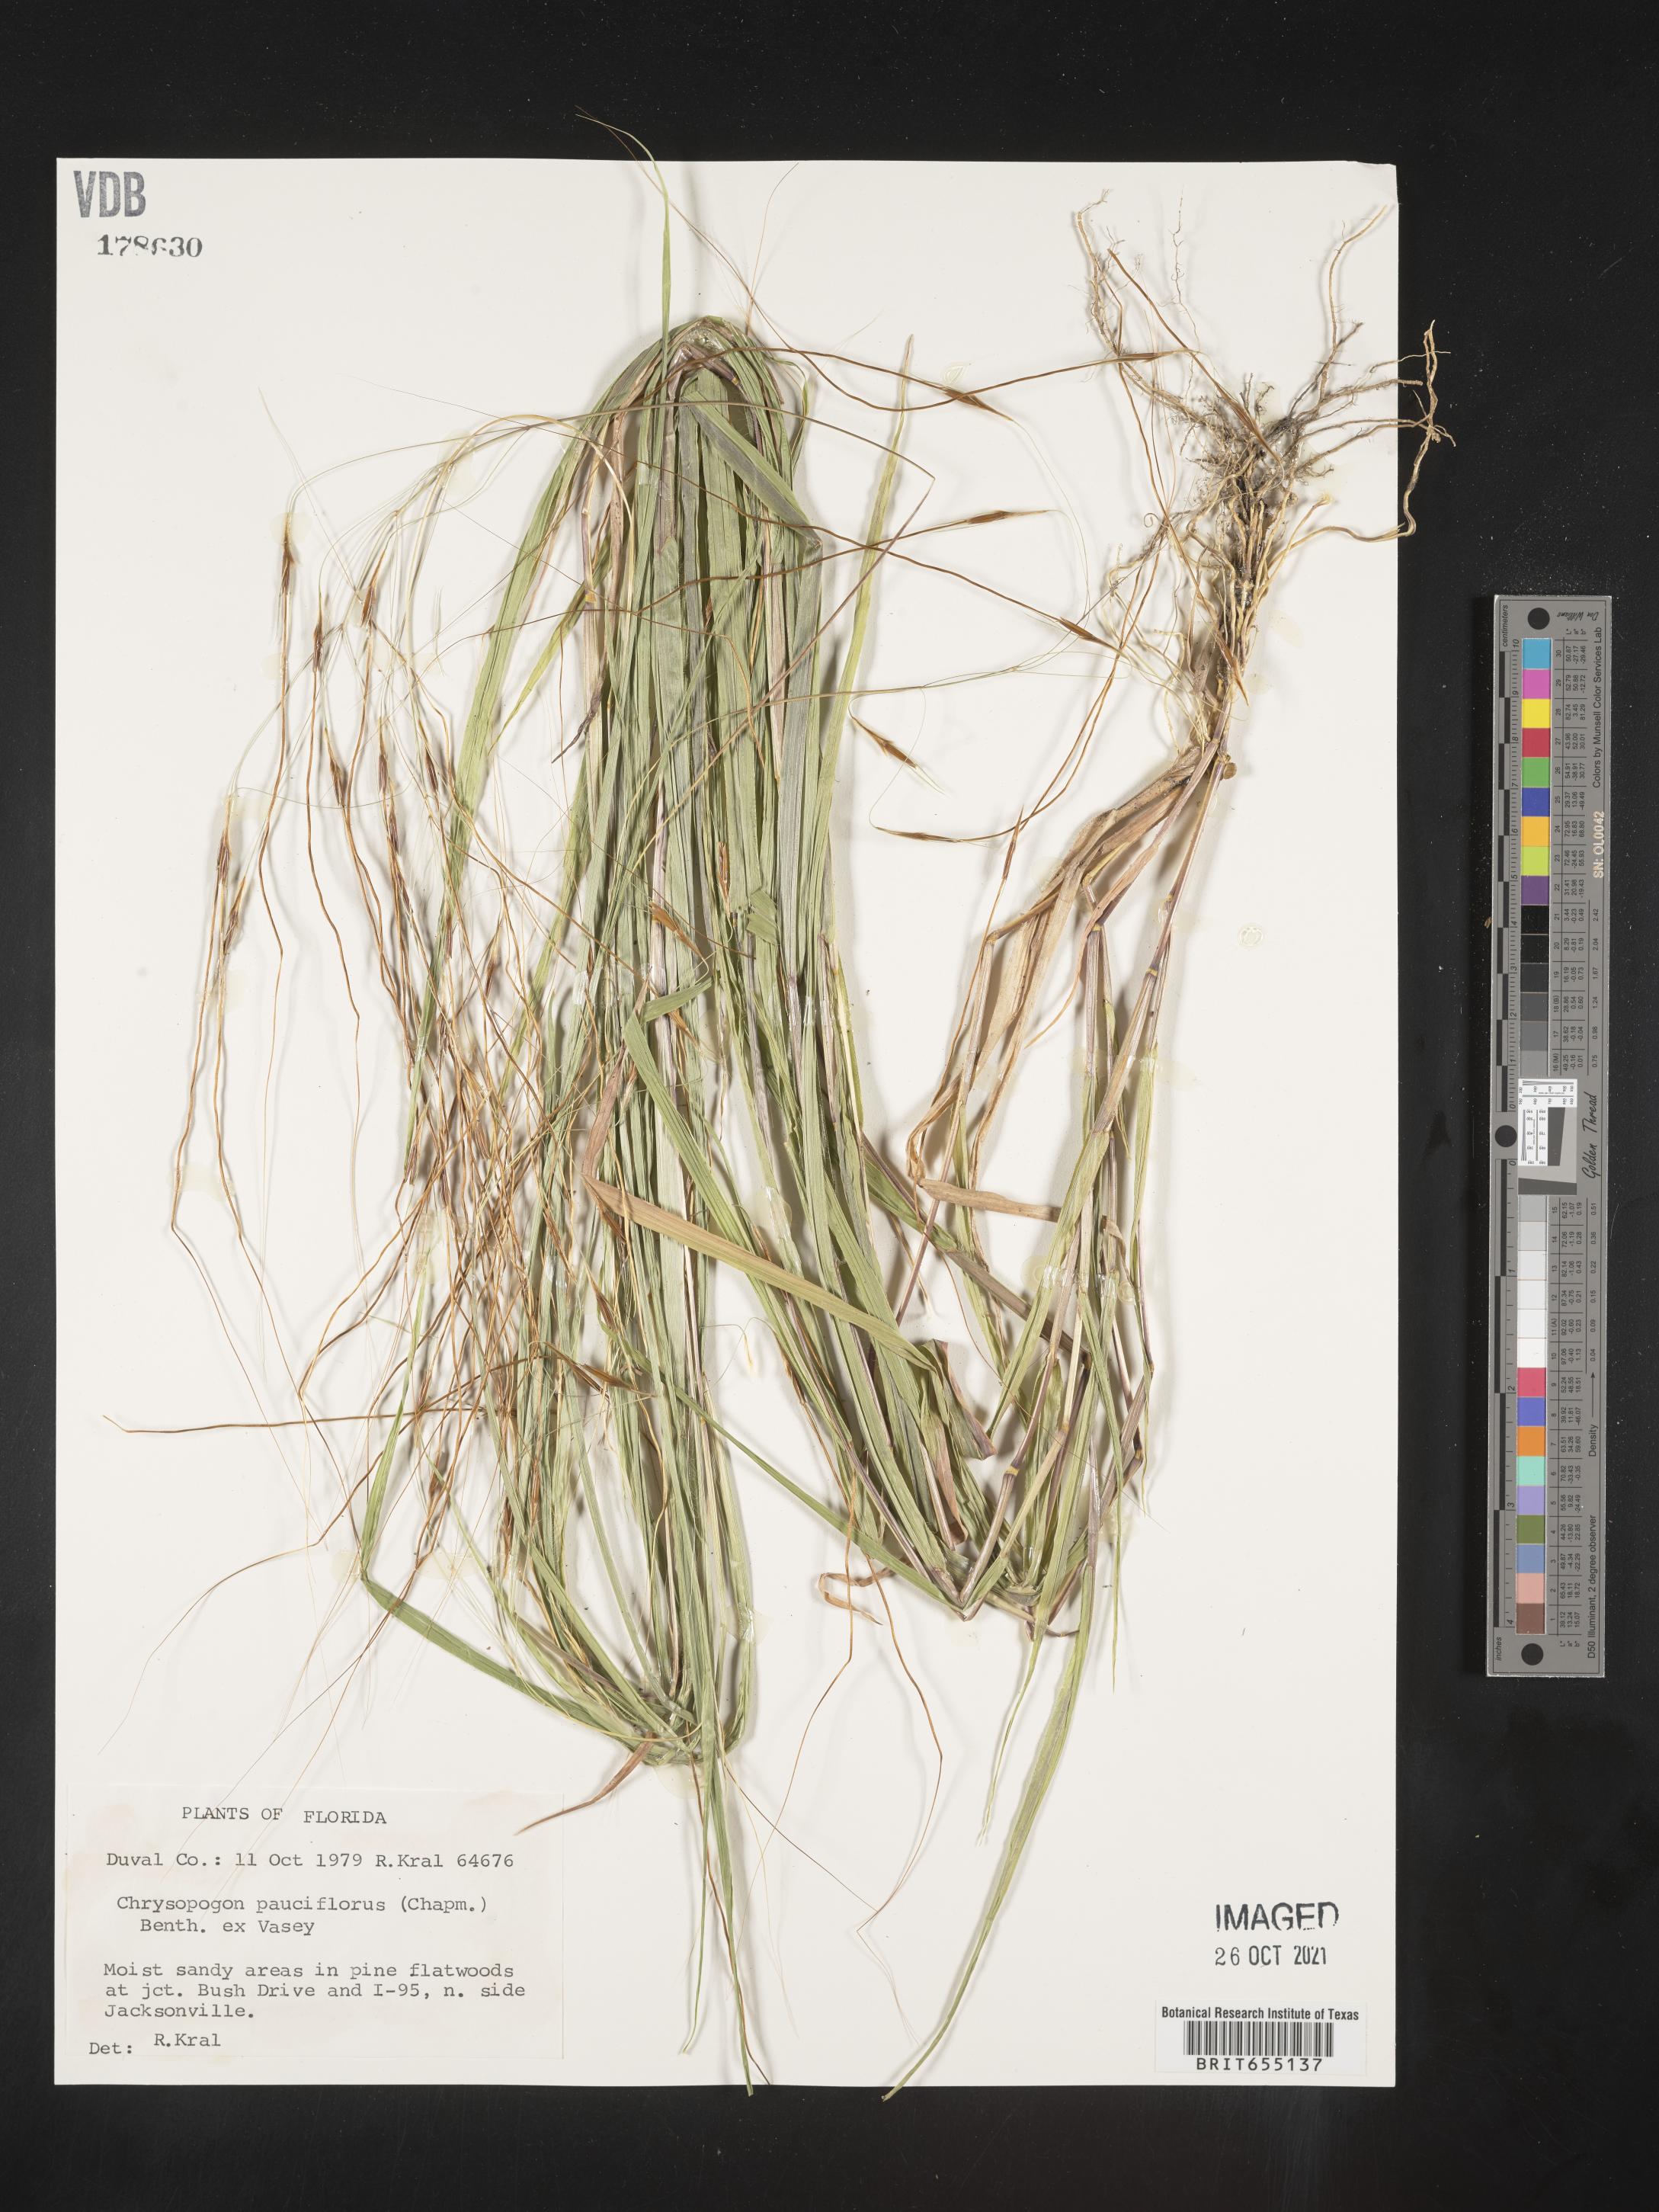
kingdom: Plantae
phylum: Tracheophyta
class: Liliopsida
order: Poales
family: Poaceae
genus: Chrysopogon
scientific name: Chrysopogon
